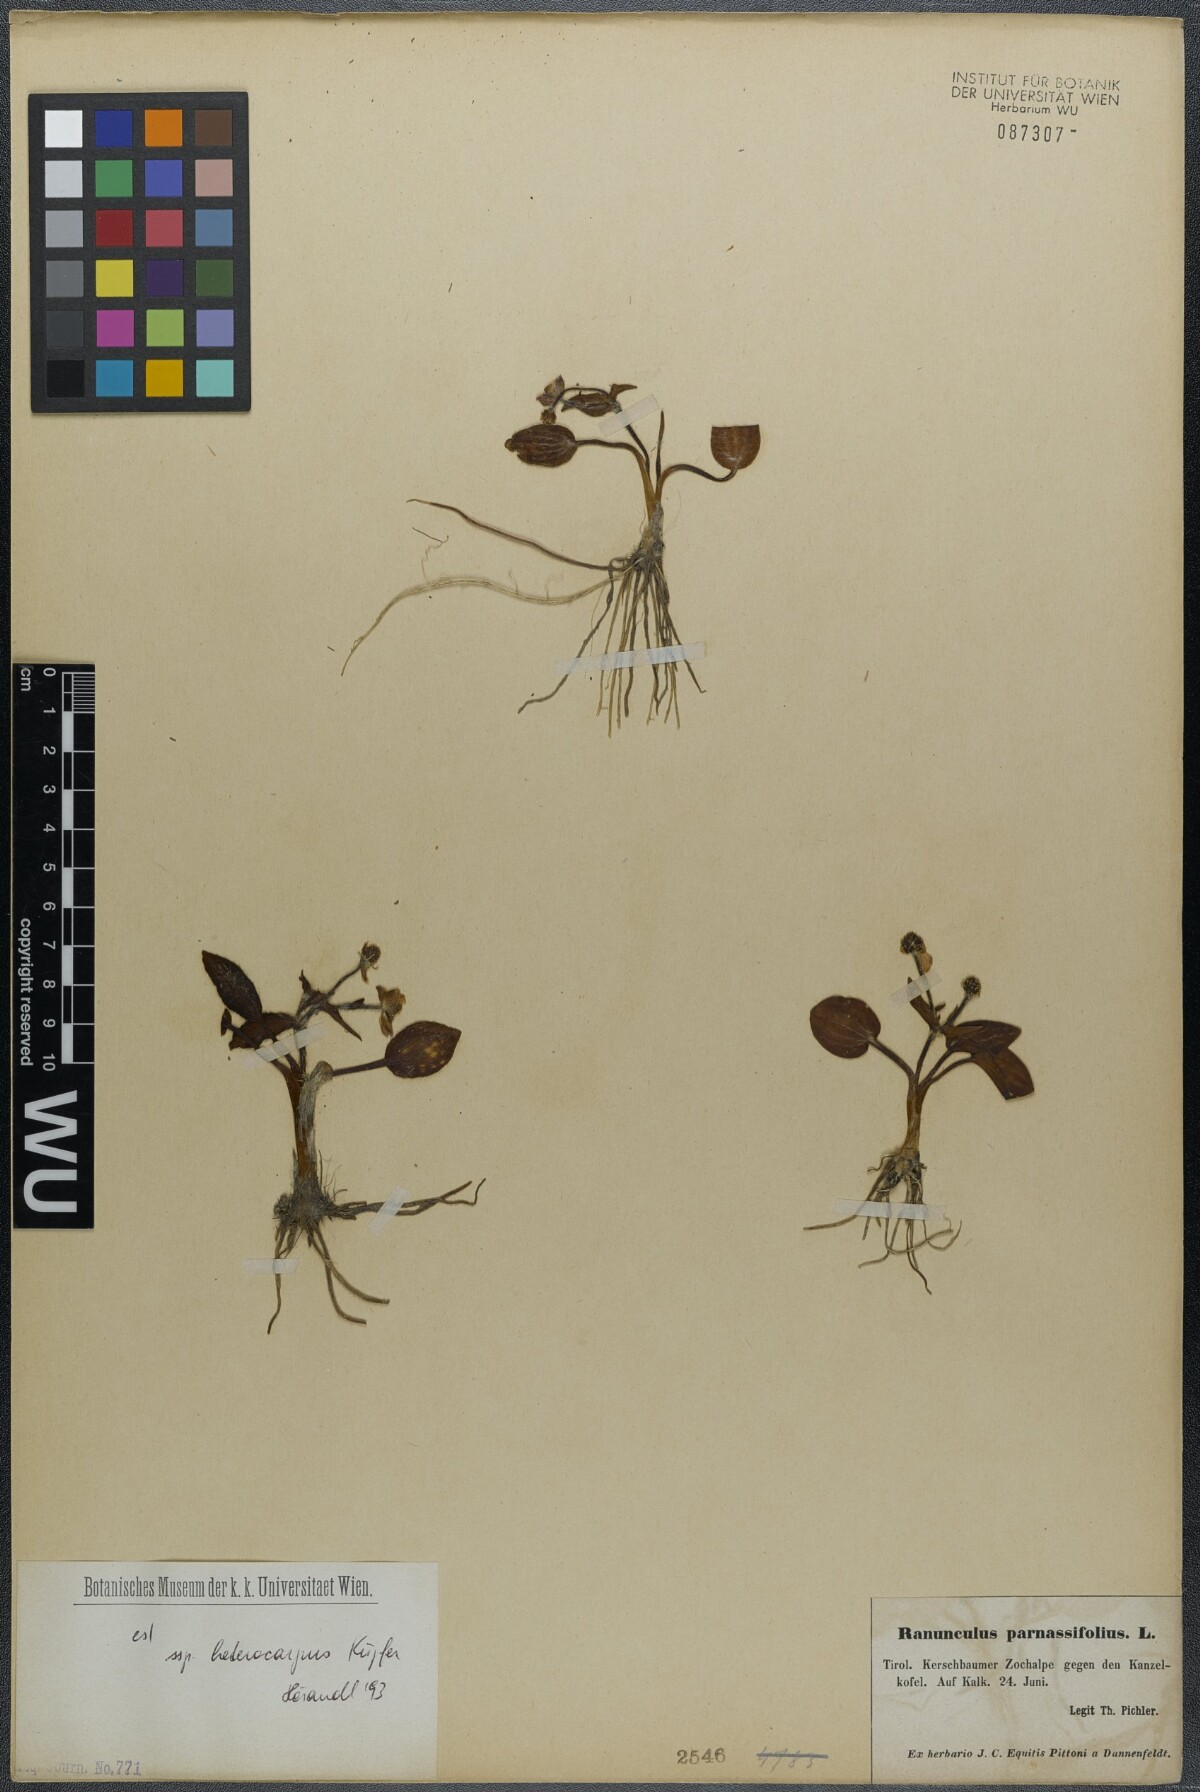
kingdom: Plantae
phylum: Tracheophyta
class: Magnoliopsida
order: Ranunculales
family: Ranunculaceae
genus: Ranunculus
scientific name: Ranunculus parnassiifolius
